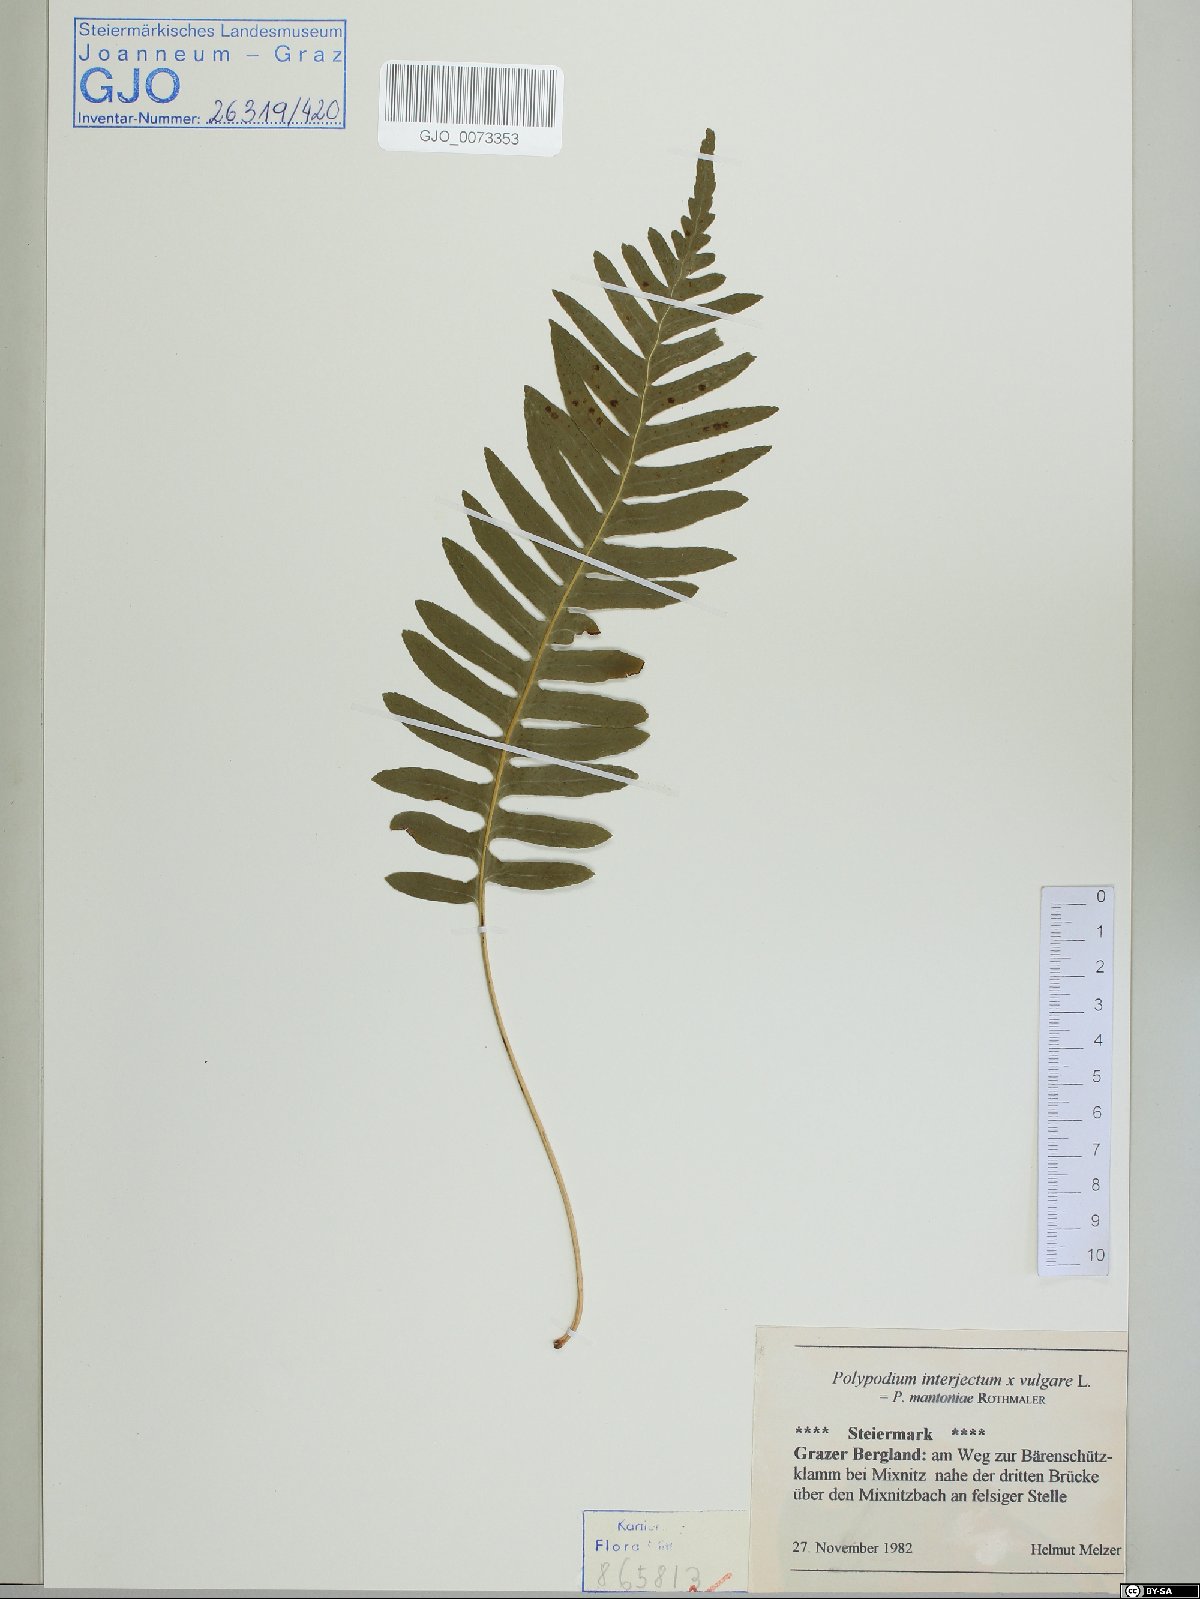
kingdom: Plantae
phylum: Tracheophyta
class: Polypodiopsida
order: Polypodiales
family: Polypodiaceae
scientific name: Polypodiaceae
